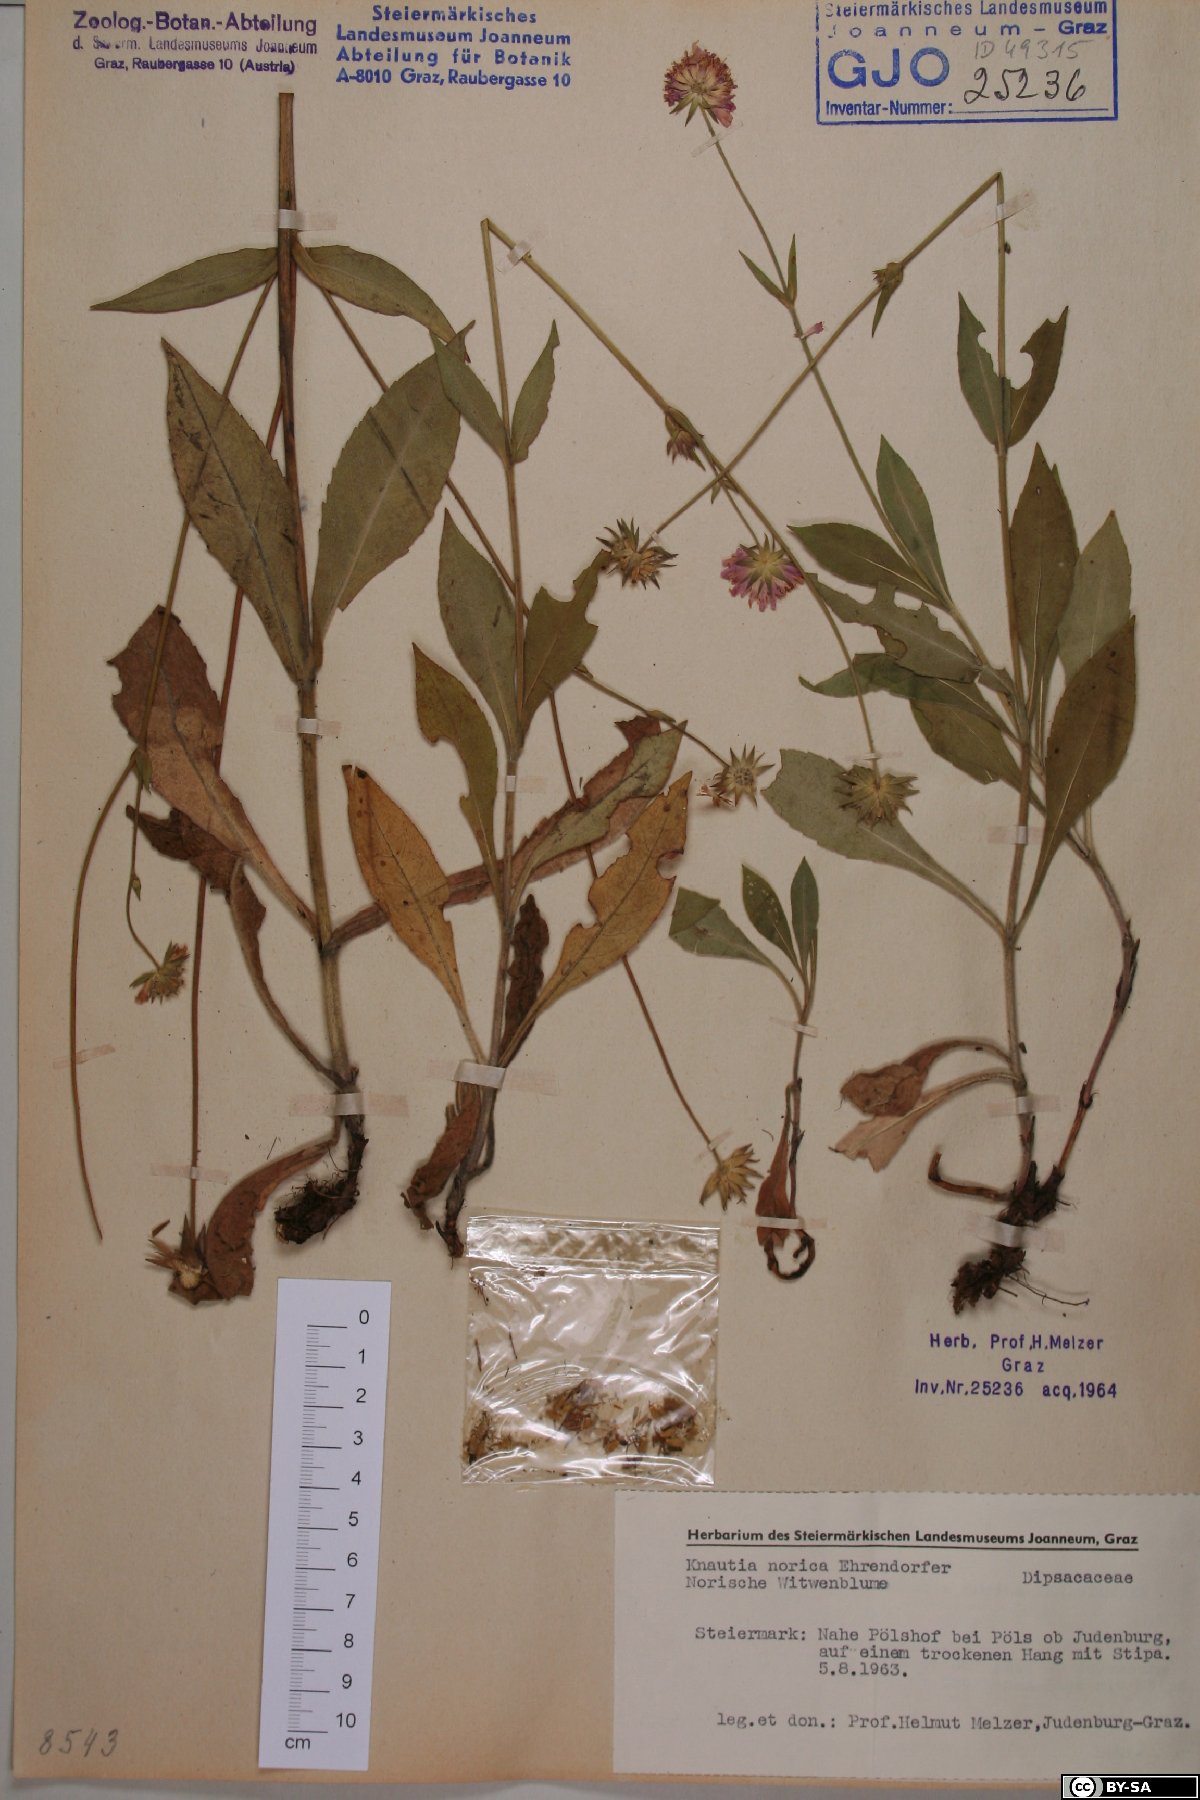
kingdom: Plantae
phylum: Tracheophyta
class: Magnoliopsida
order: Dipsacales
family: Caprifoliaceae
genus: Knautia
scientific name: Knautia norica
